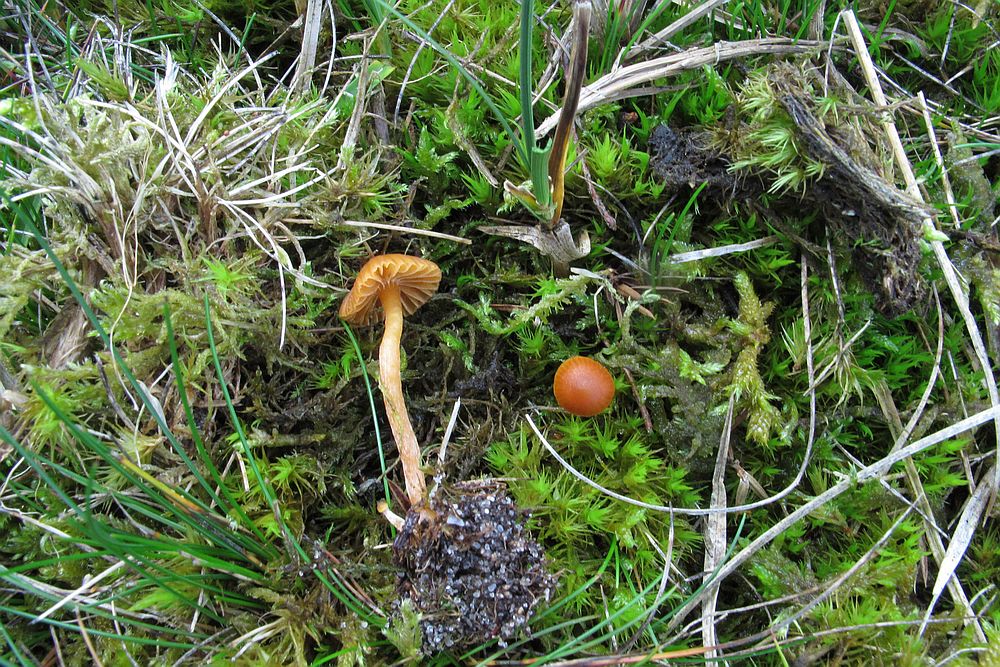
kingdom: Fungi
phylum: Basidiomycota
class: Agaricomycetes
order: Agaricales
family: Hymenogastraceae
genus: Galerina
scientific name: Galerina cerina
